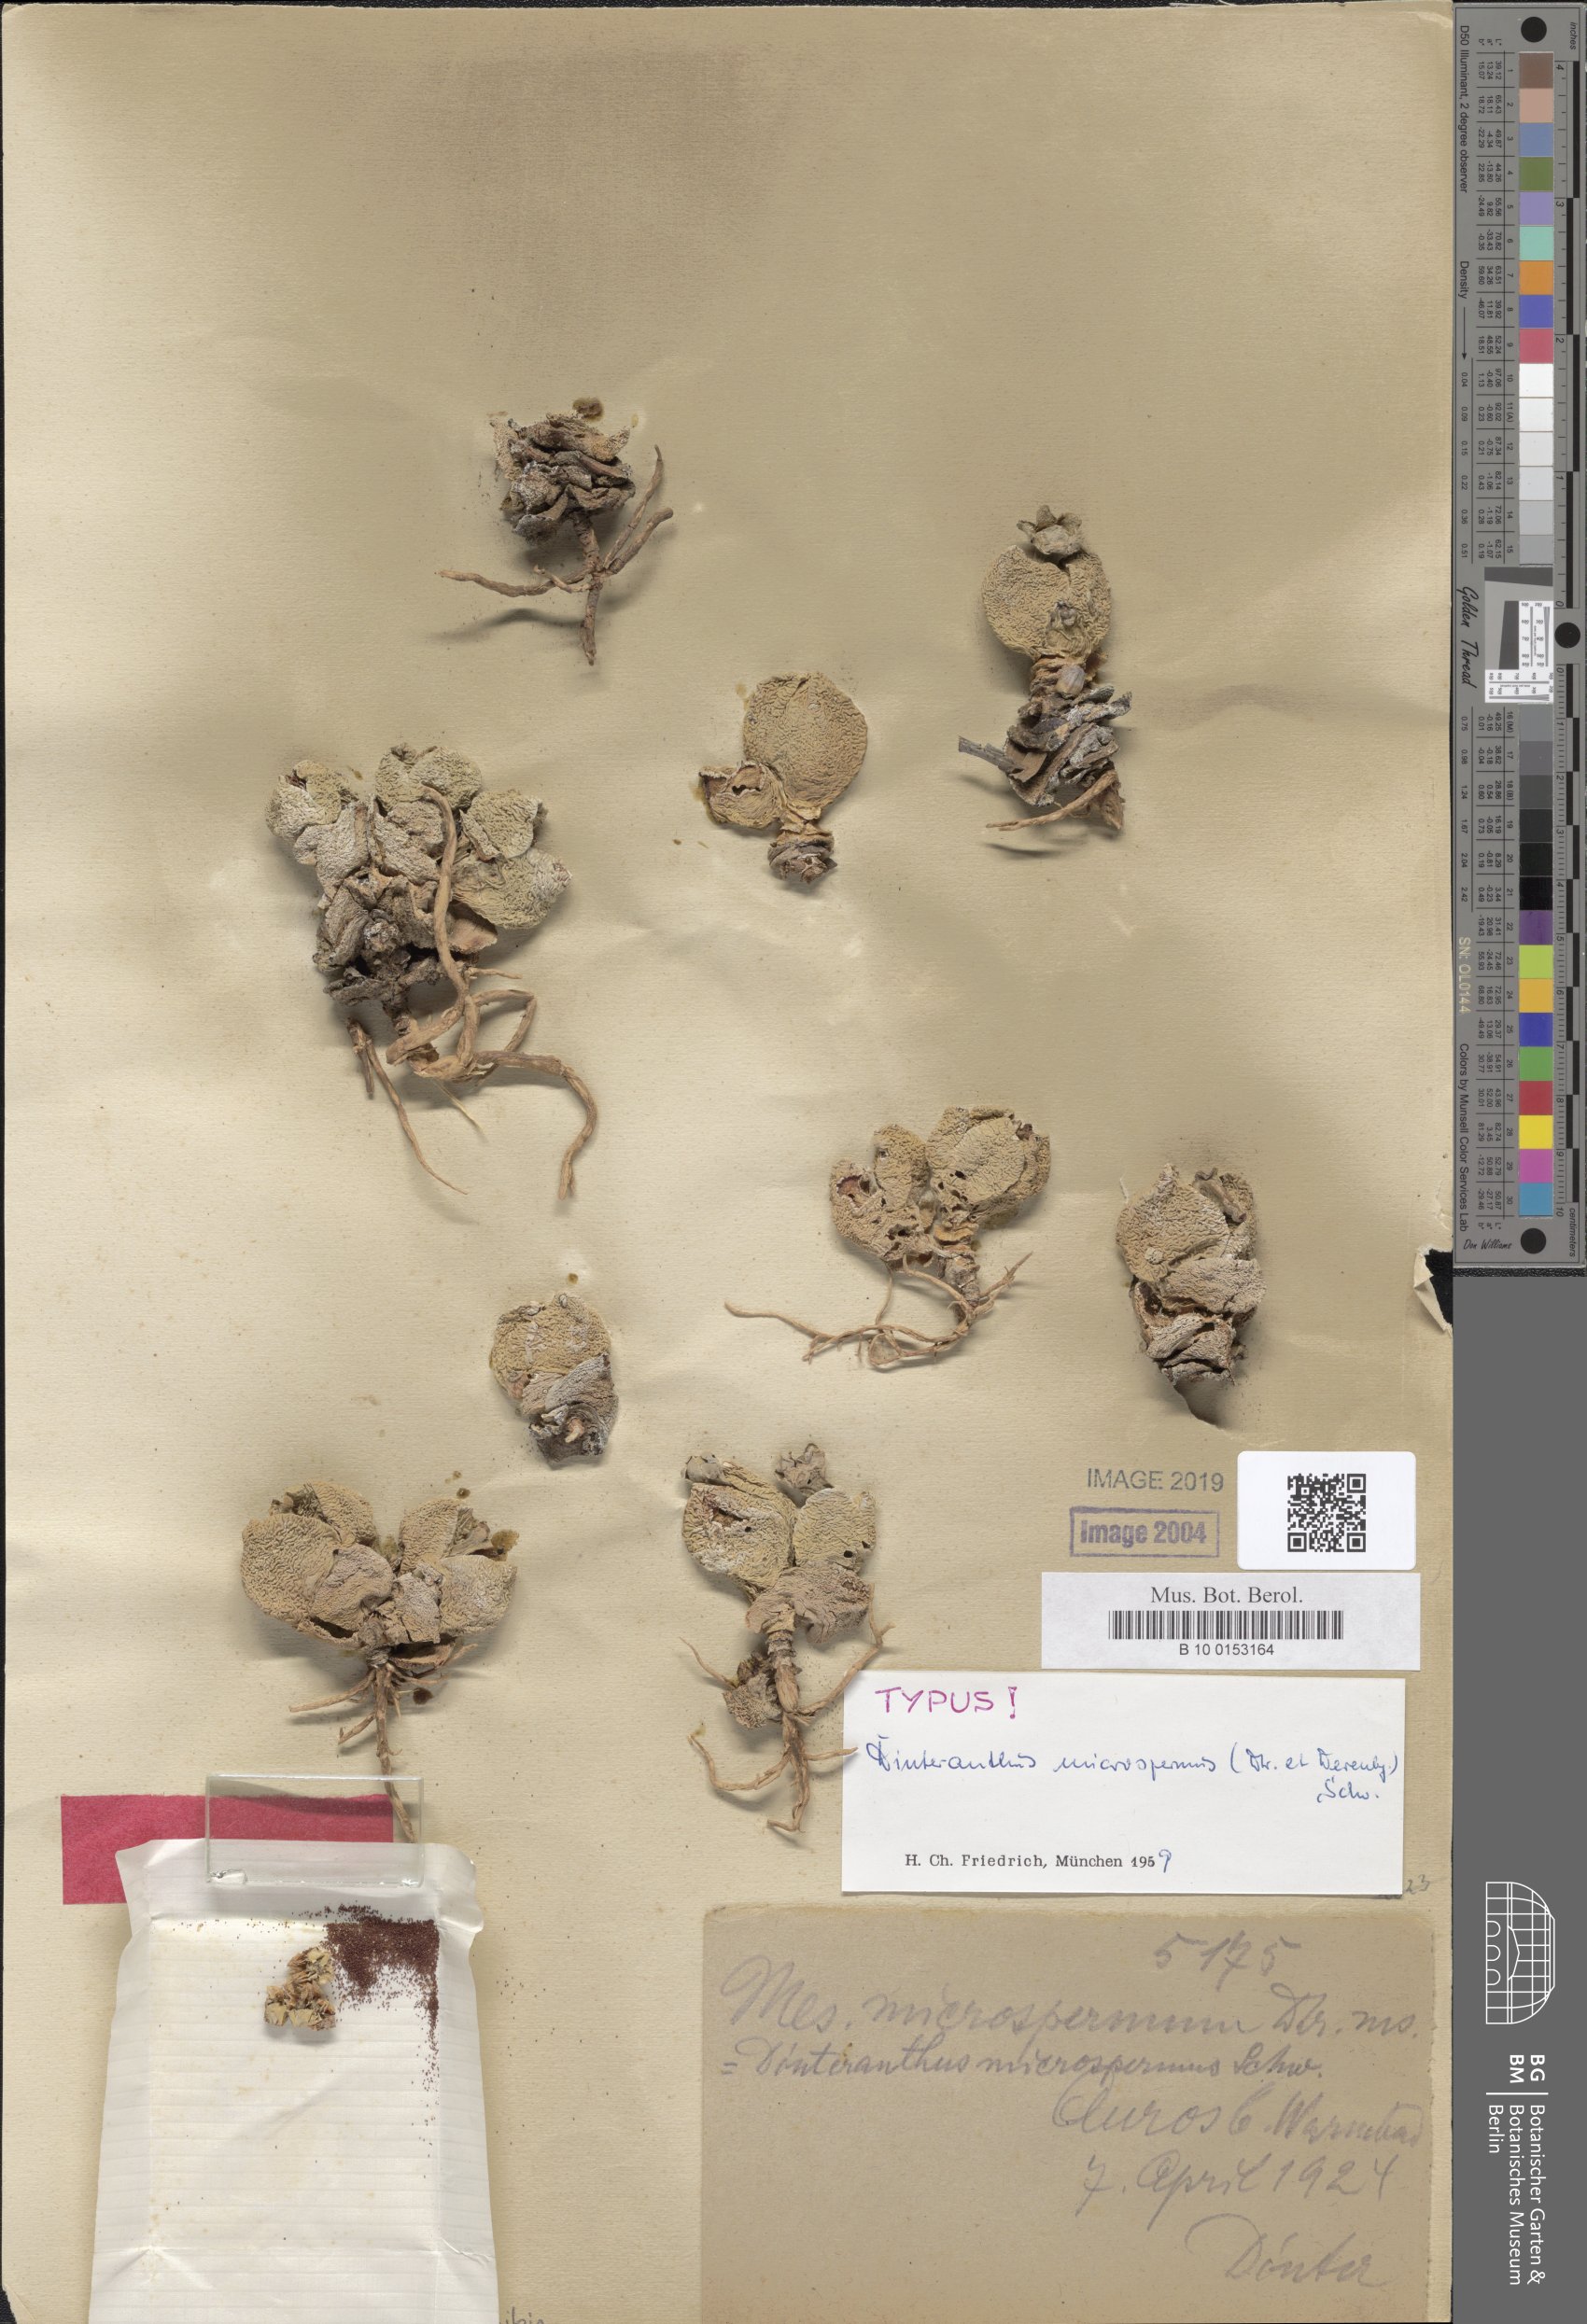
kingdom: Plantae
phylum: Tracheophyta
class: Magnoliopsida
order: Caryophyllales
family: Aizoaceae
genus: Dinteranthus
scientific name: Dinteranthus microspermus
